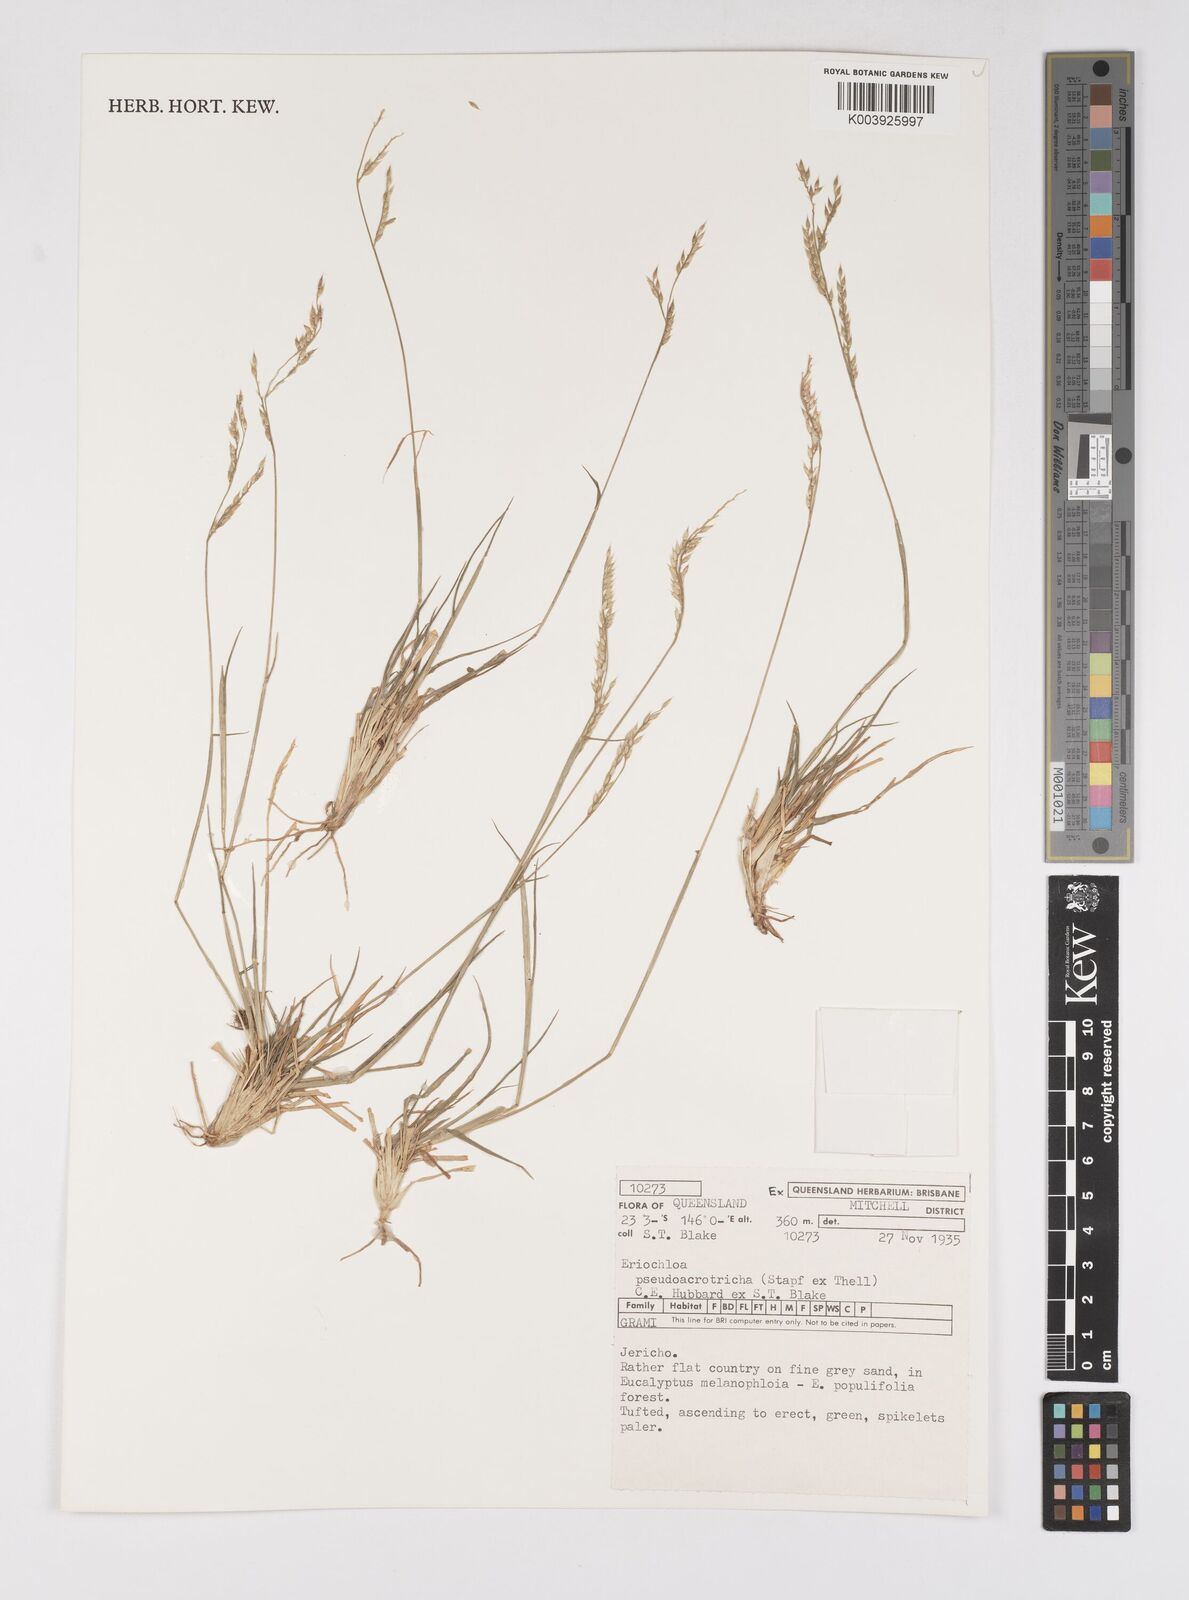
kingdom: Plantae
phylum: Tracheophyta
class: Liliopsida
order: Poales
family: Poaceae
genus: Eriochloa
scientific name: Eriochloa pseudoacrotricha
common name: Perennial cup-grass
